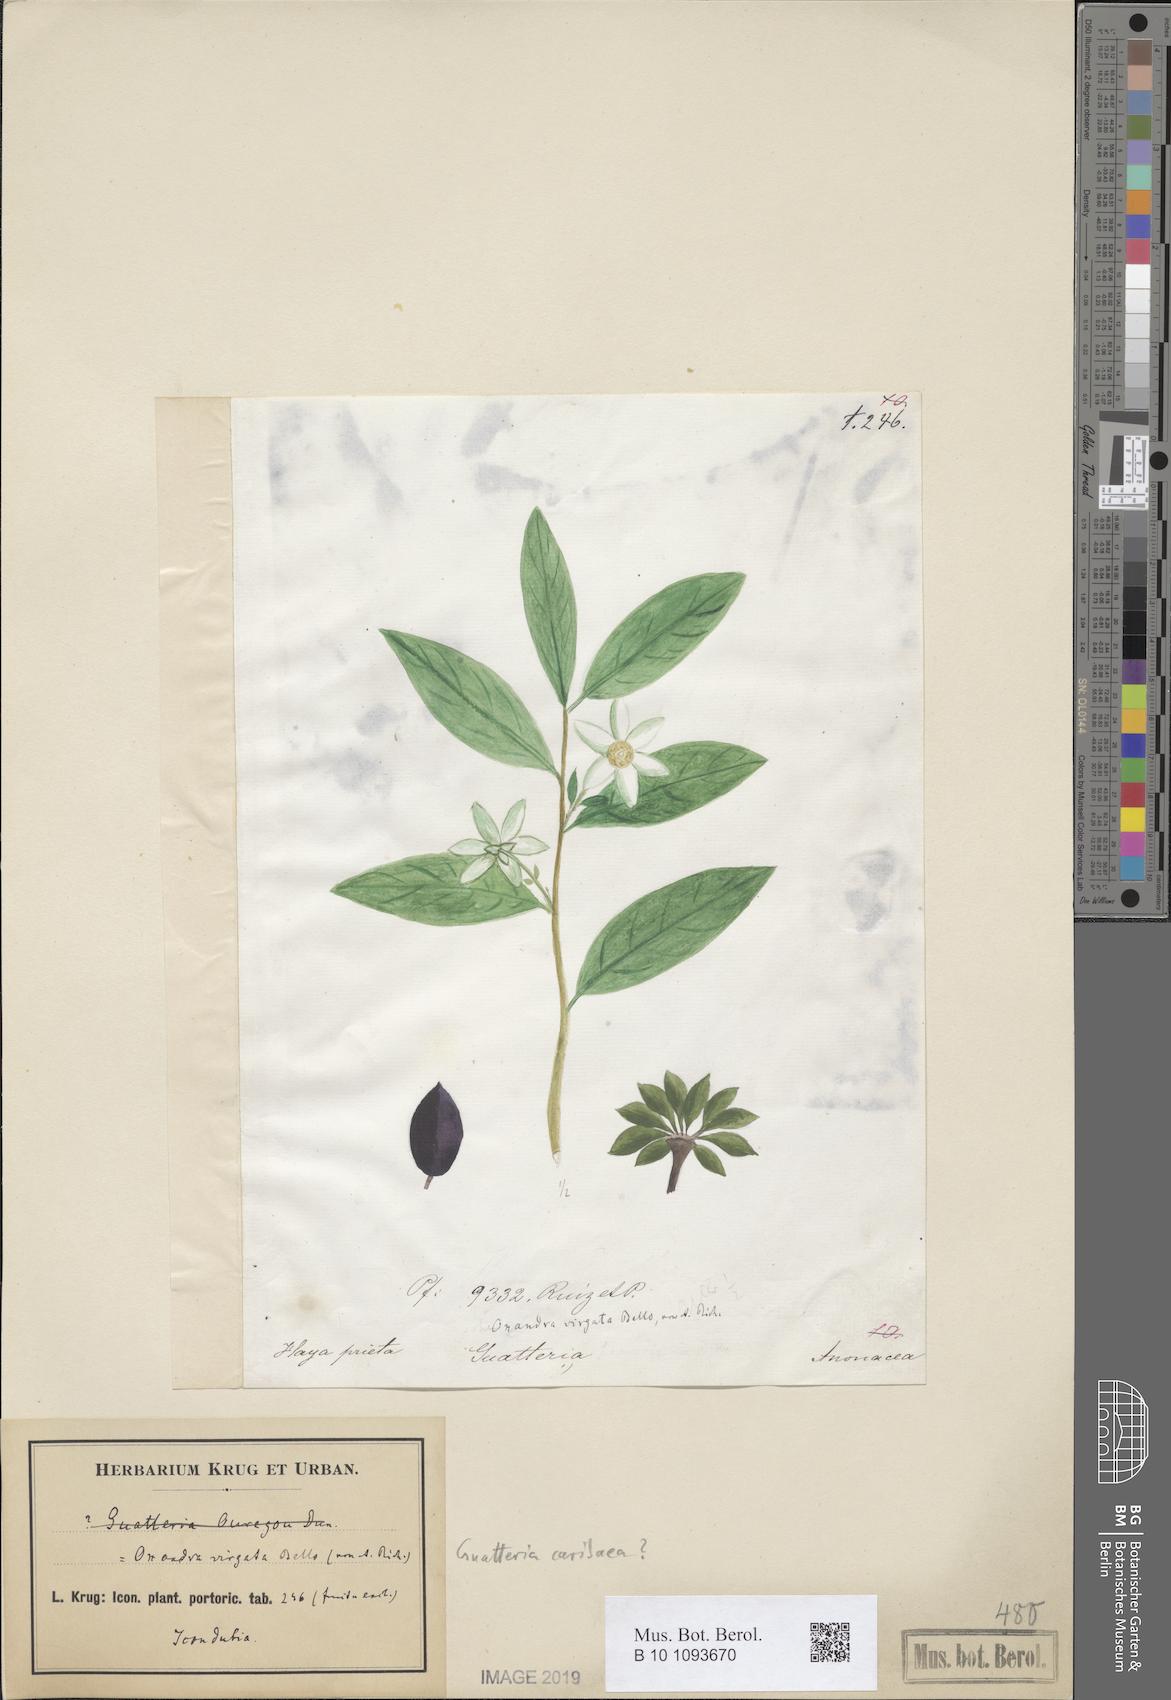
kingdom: Plantae
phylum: Tracheophyta
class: Magnoliopsida
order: Magnoliales
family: Annonaceae
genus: Guatteria
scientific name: Guatteria caribaea
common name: Wild soursop
